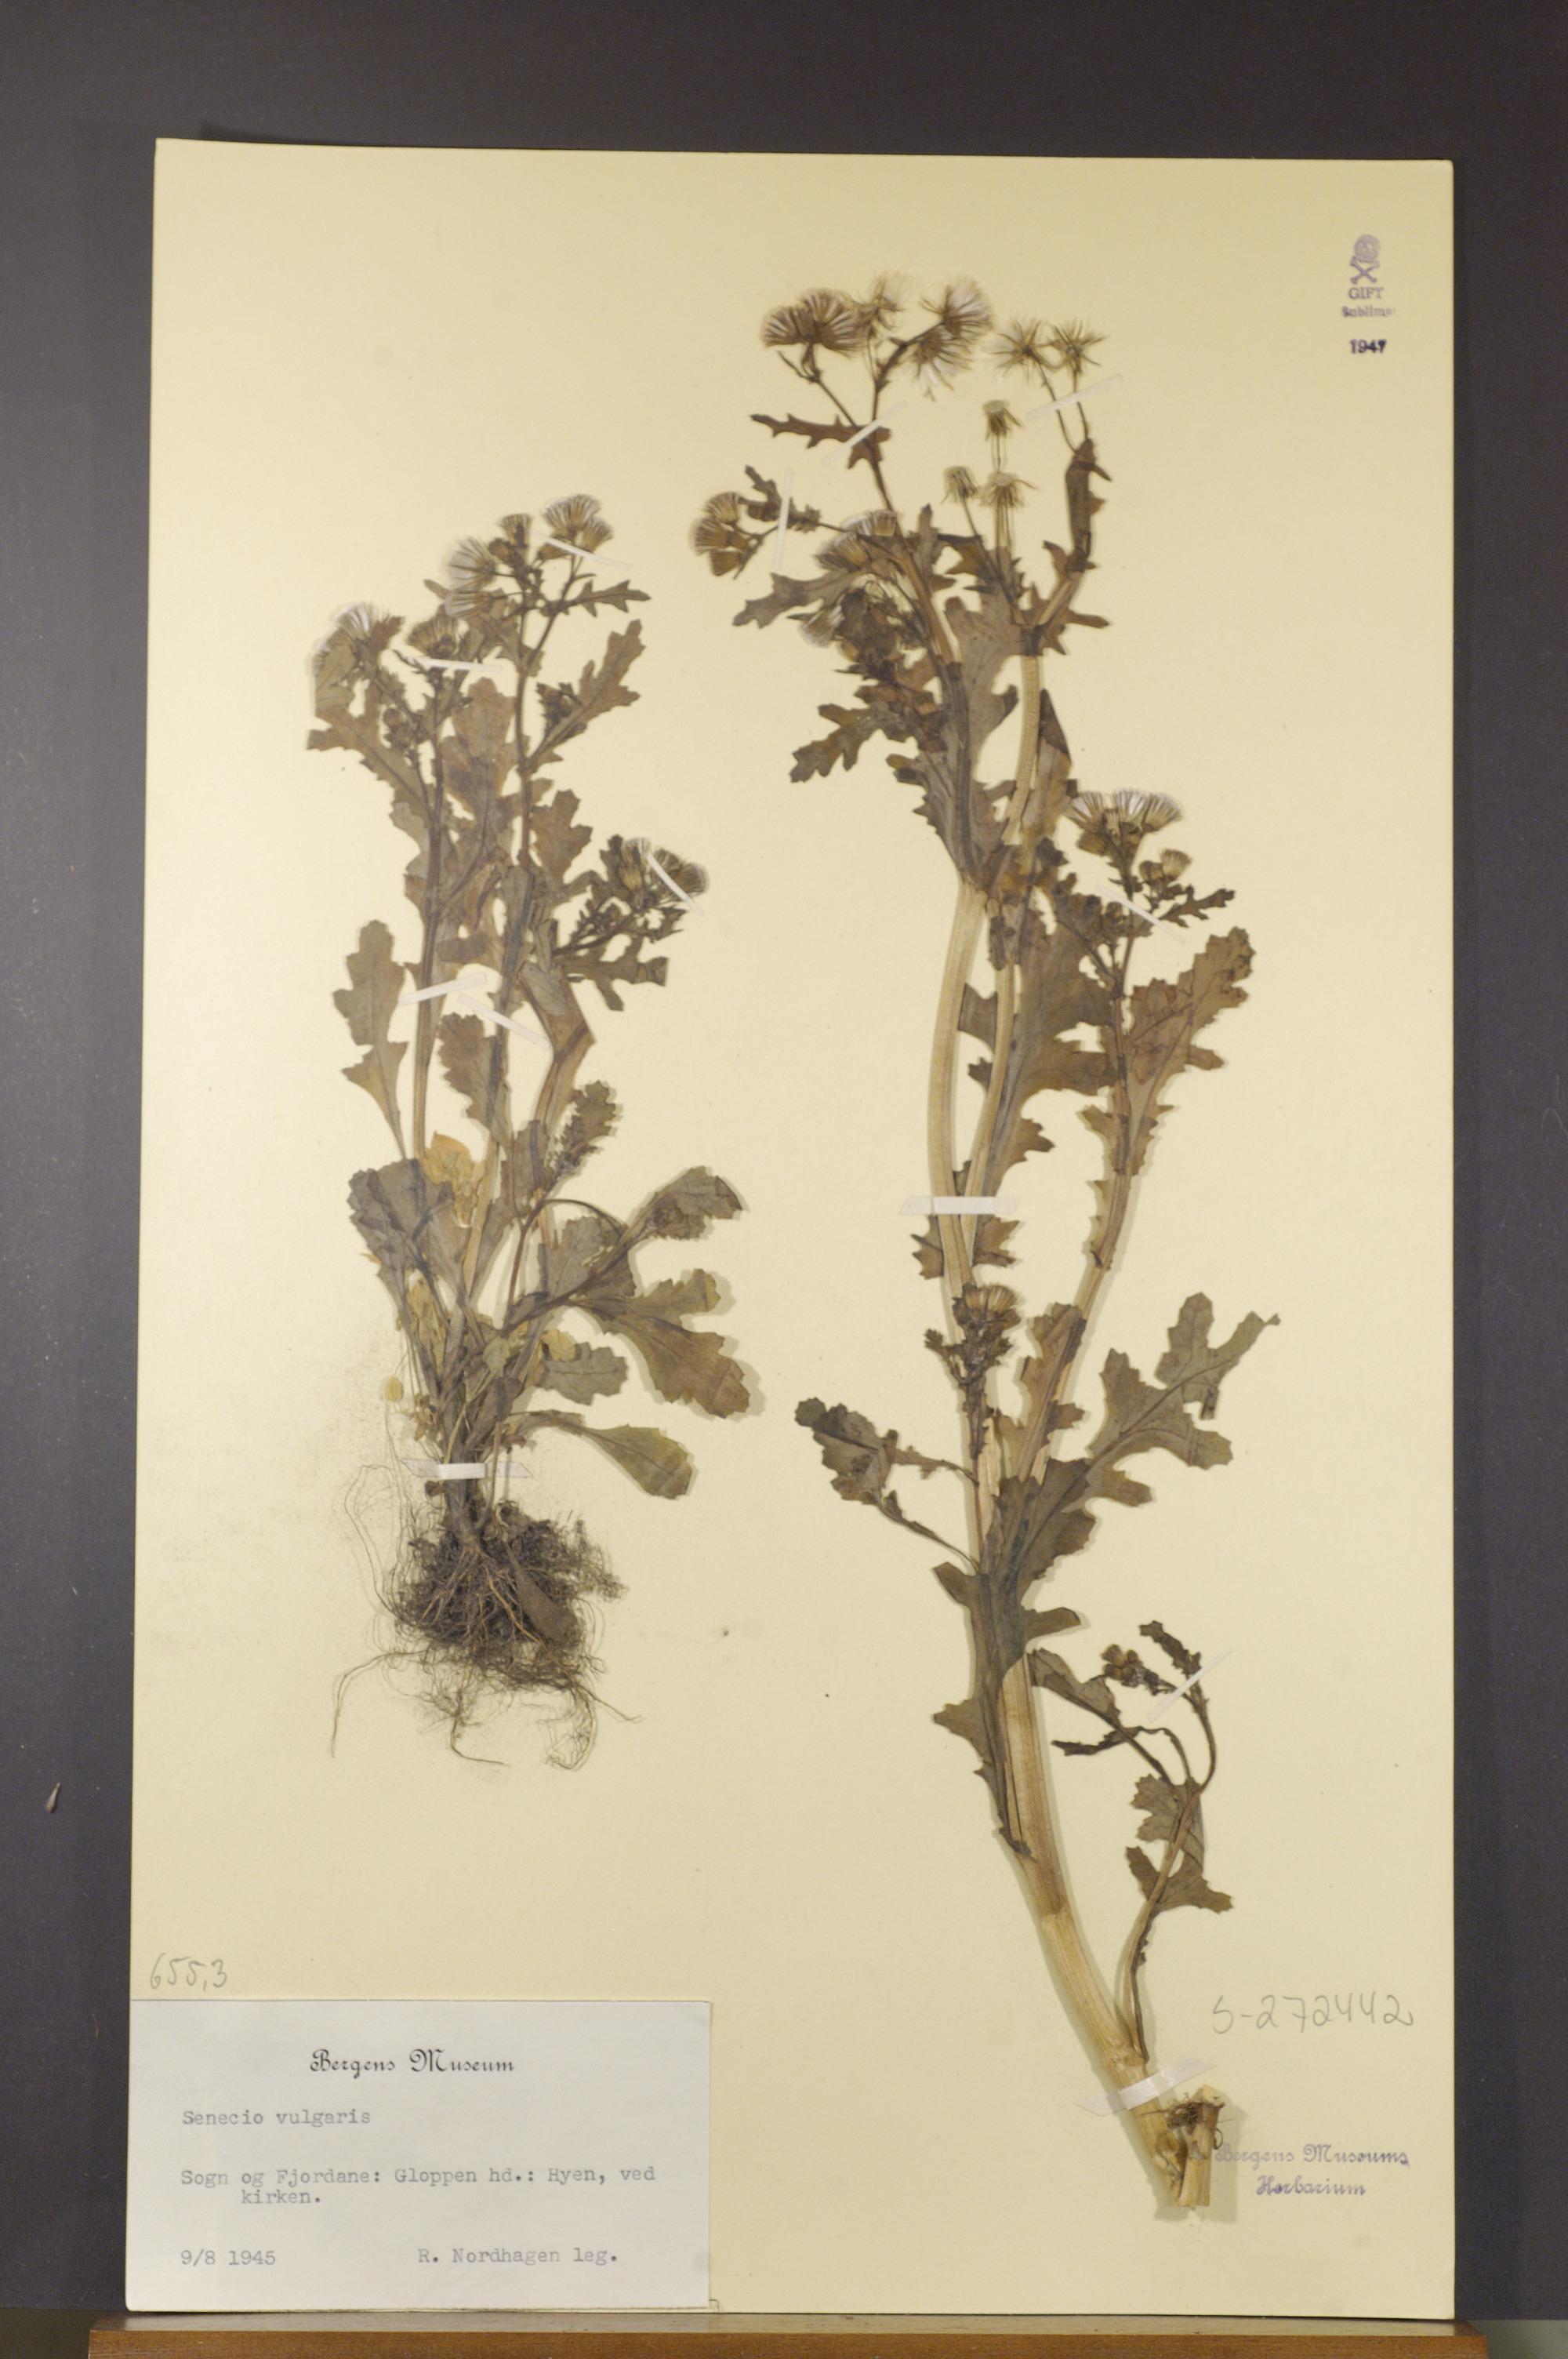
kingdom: Plantae
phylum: Tracheophyta
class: Magnoliopsida
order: Asterales
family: Asteraceae
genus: Senecio
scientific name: Senecio vulgaris
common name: Old-man-in-the-spring
